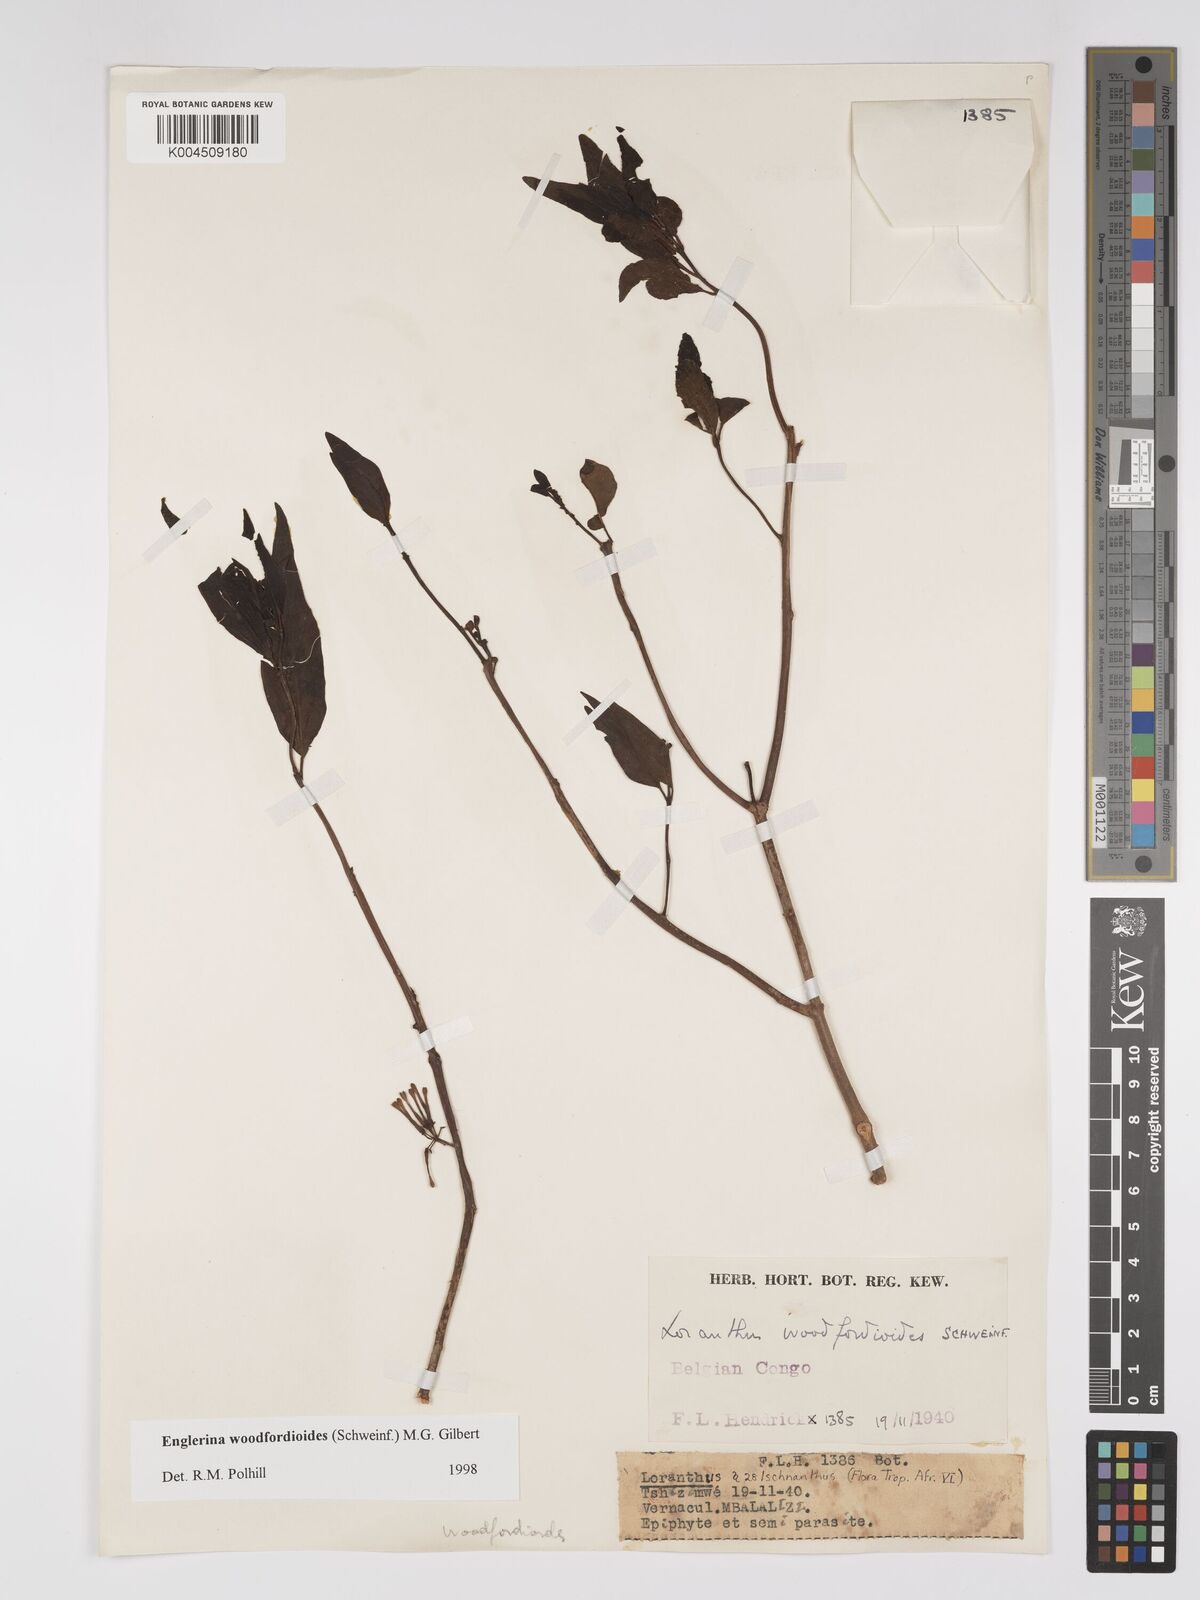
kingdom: Plantae
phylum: Tracheophyta
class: Magnoliopsida
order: Santalales
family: Loranthaceae
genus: Englerina
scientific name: Englerina woodfordioides
